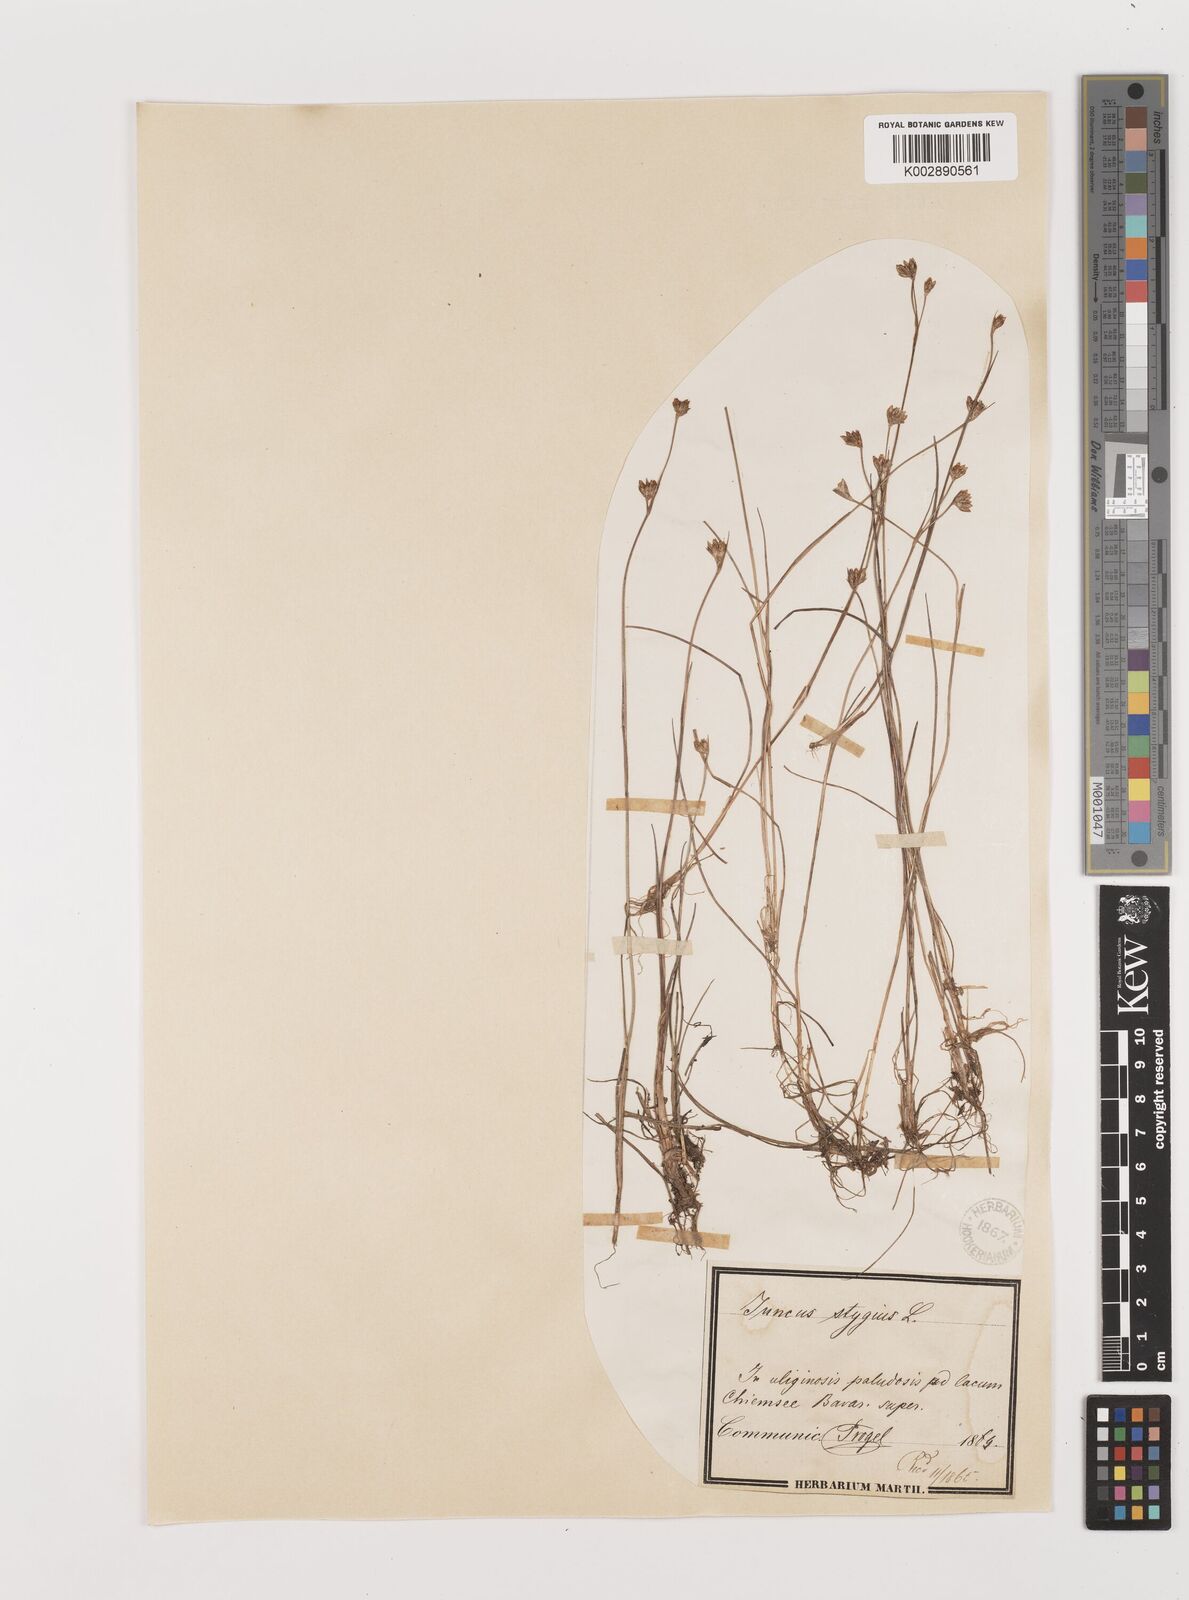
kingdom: Plantae
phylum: Tracheophyta
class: Liliopsida
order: Poales
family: Juncaceae
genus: Juncus
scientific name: Juncus stygius
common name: Bog rush
